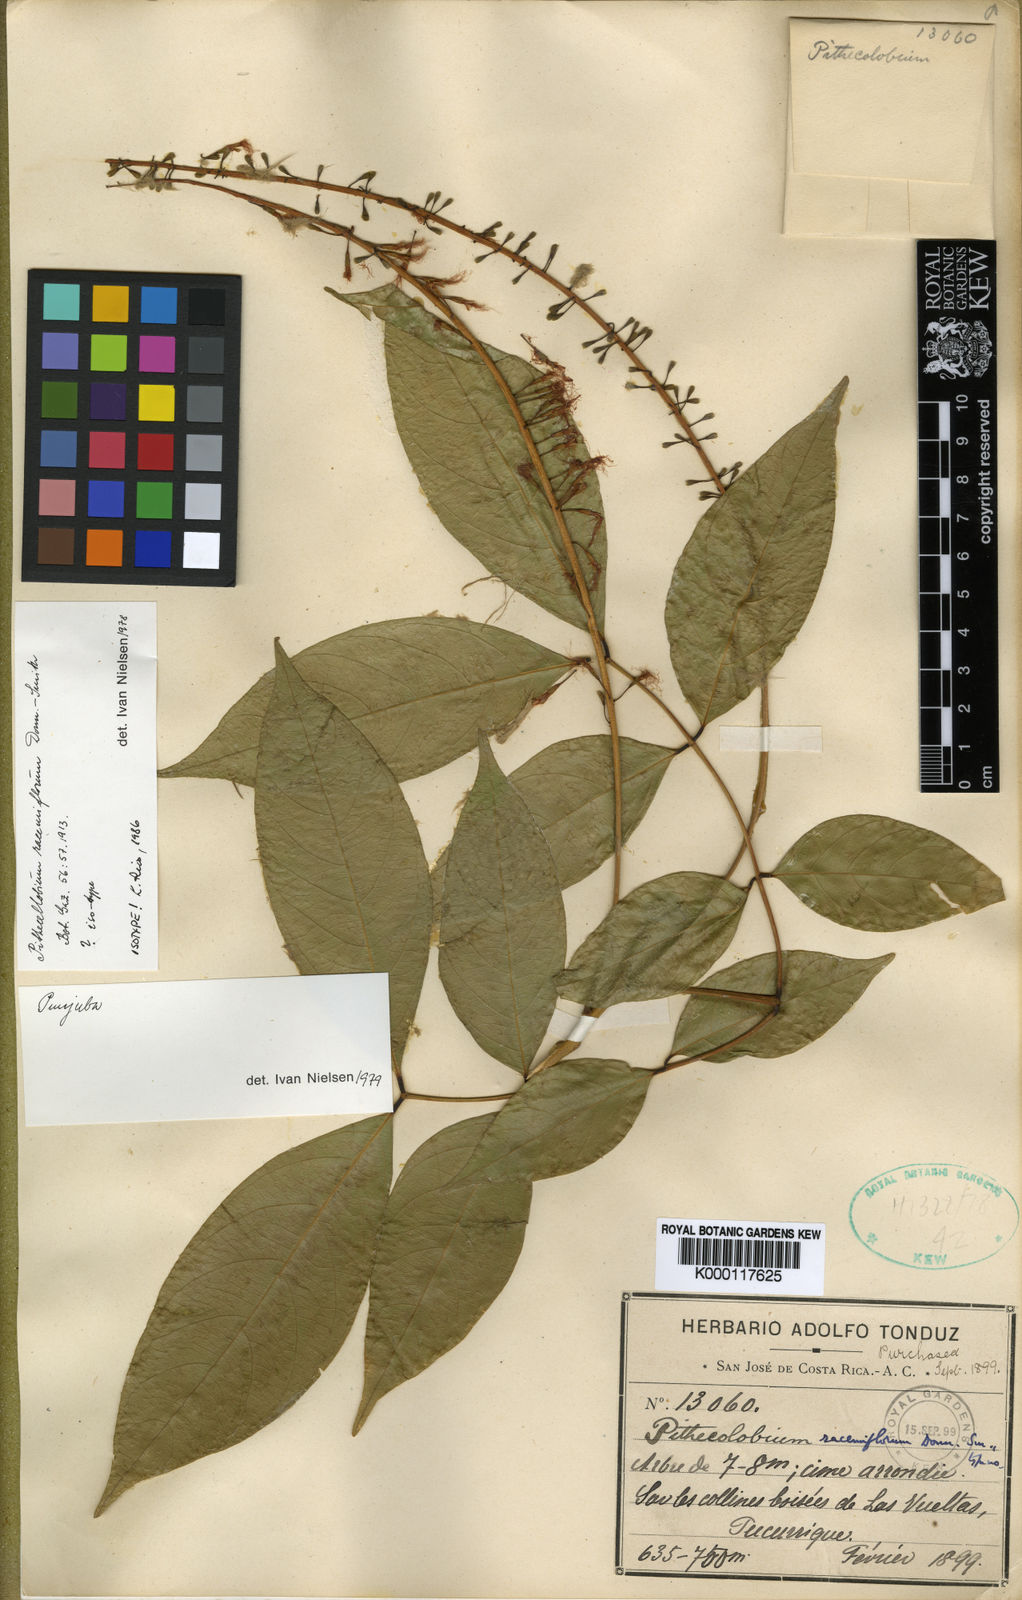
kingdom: Plantae
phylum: Tracheophyta
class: Magnoliopsida
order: Fabales
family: Fabaceae
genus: Punjuba
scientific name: Punjuba racemiflora
